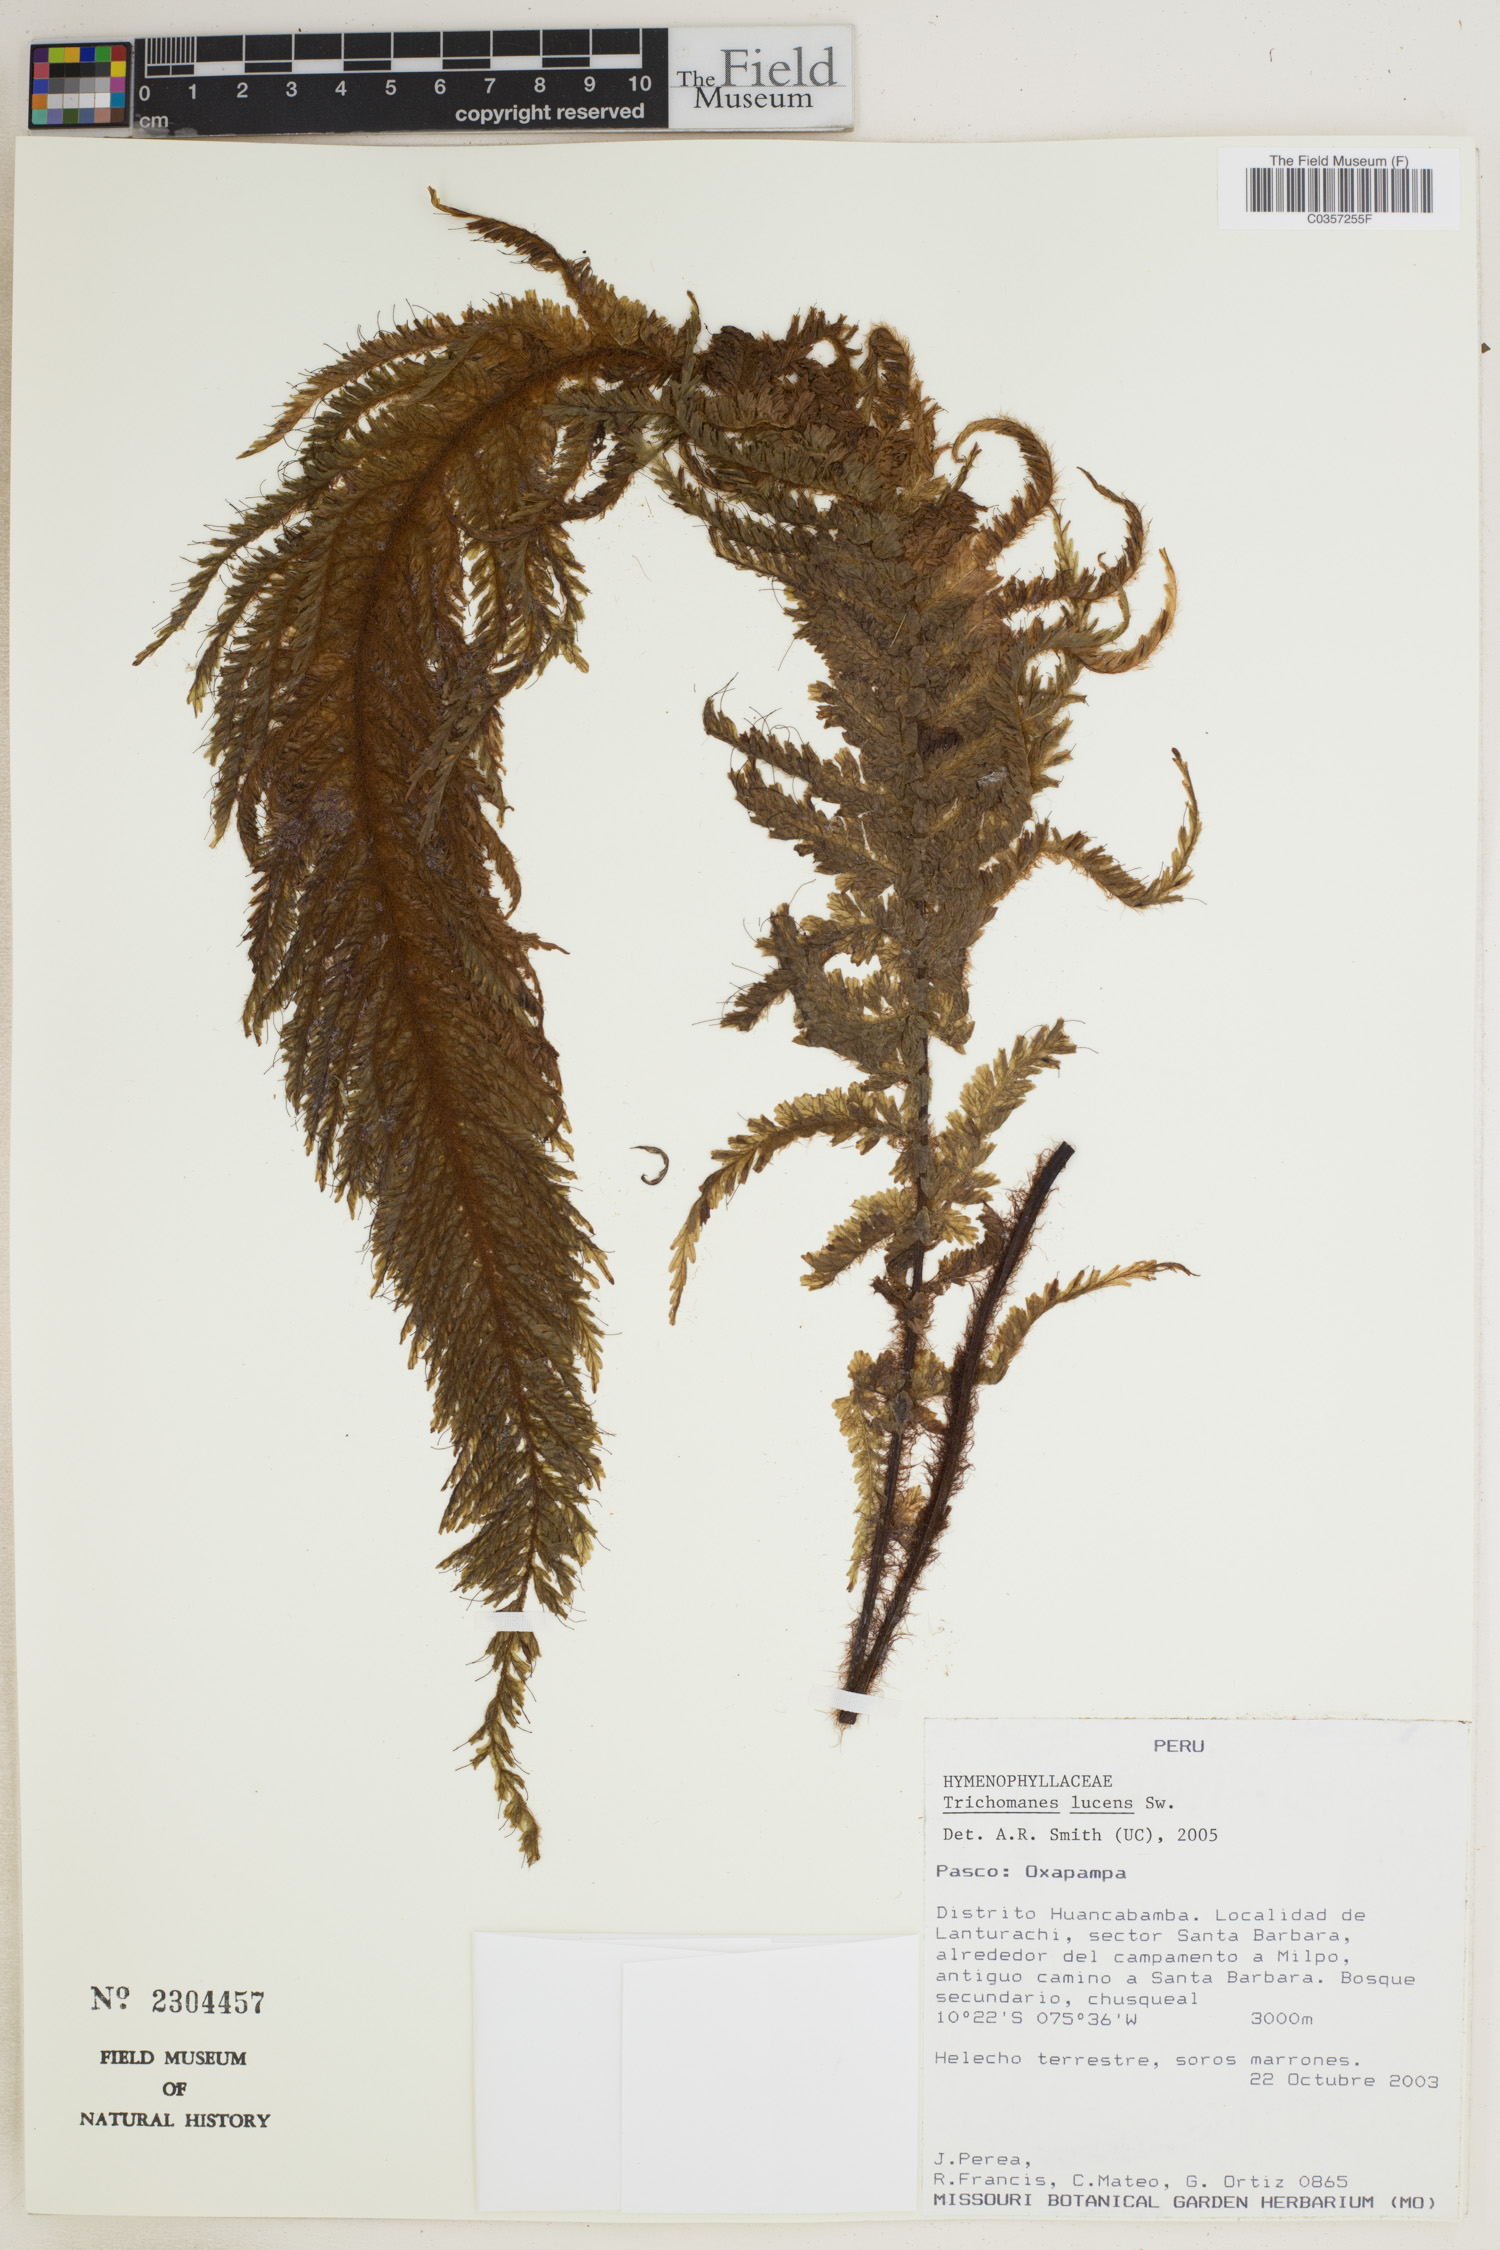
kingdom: Plantae
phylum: Tracheophyta
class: Polypodiopsida
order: Hymenophyllales
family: Hymenophyllaceae
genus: Trichomanes
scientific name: Trichomanes lucens
